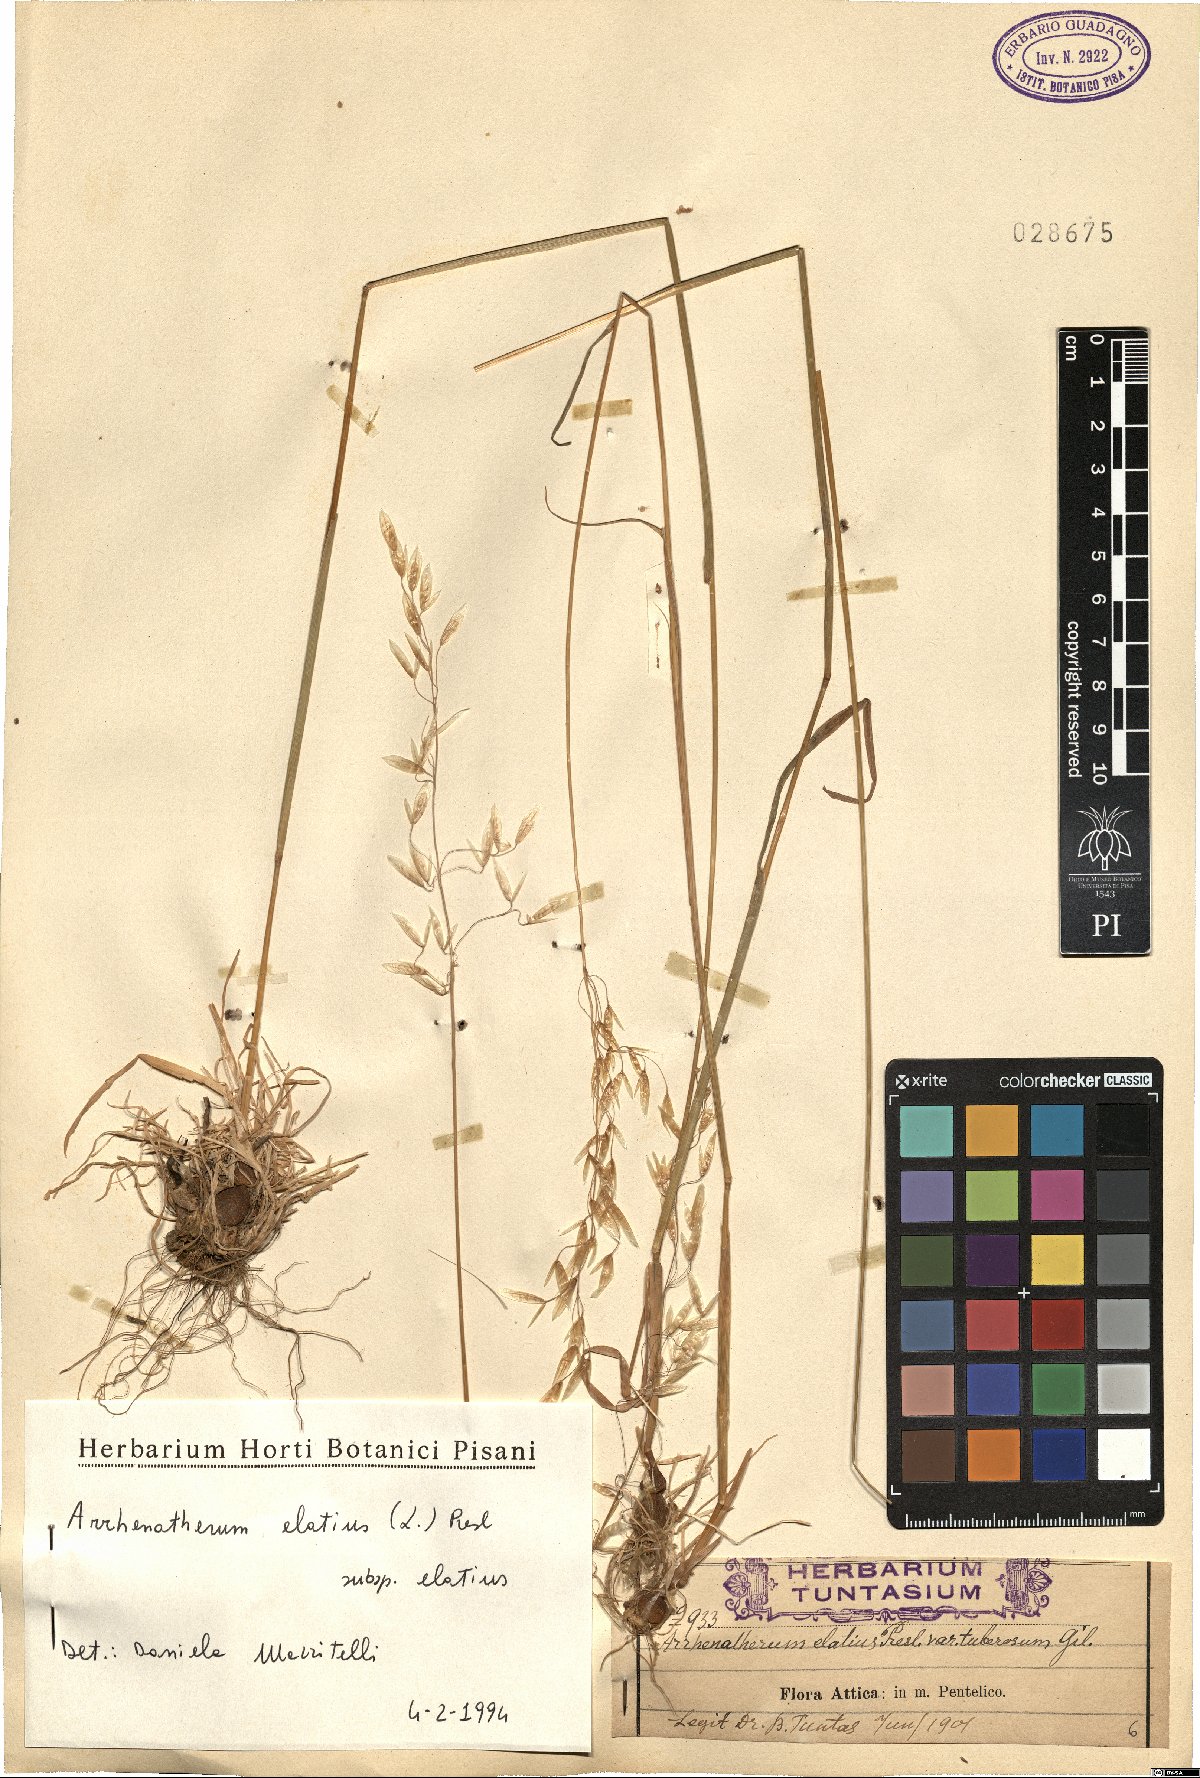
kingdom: Plantae
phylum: Tracheophyta
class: Liliopsida
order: Poales
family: Poaceae
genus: Arrhenatherum
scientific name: Arrhenatherum elatius
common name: Tall oatgrass
